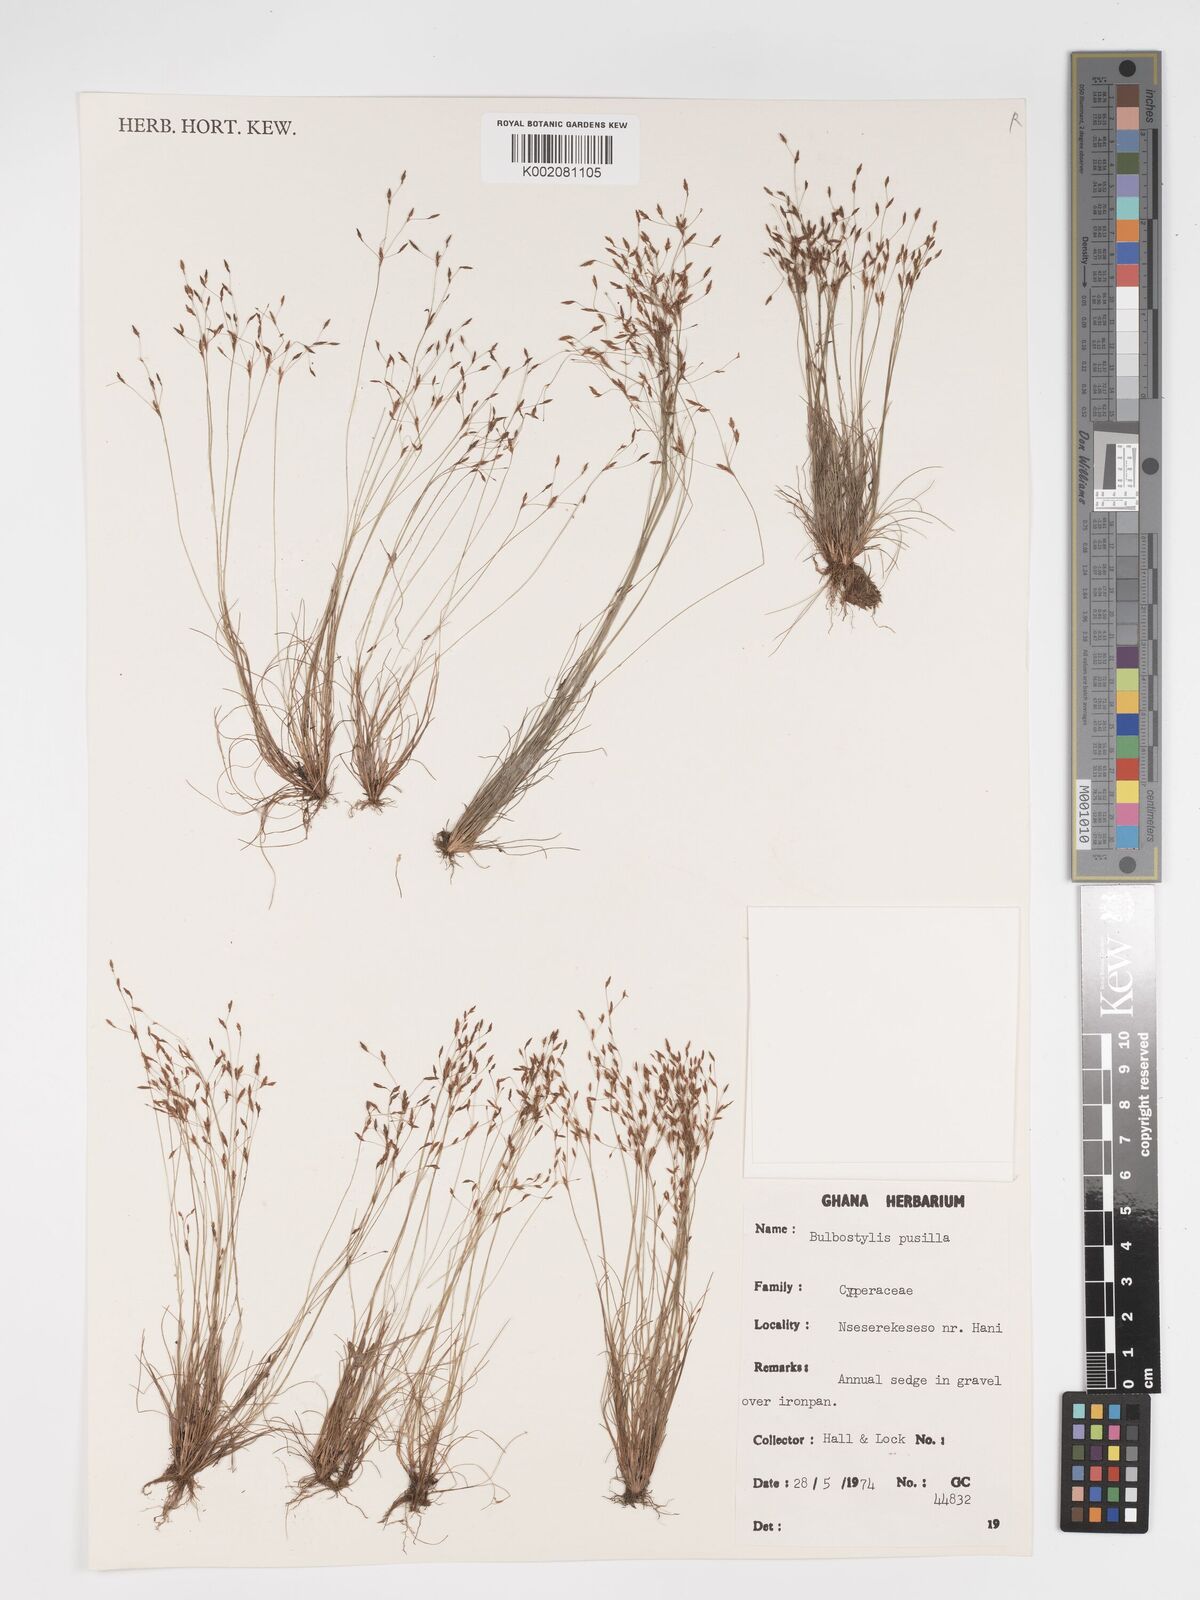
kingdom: Plantae
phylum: Tracheophyta
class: Liliopsida
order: Poales
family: Cyperaceae
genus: Bulbostylis
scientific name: Bulbostylis pusilla
